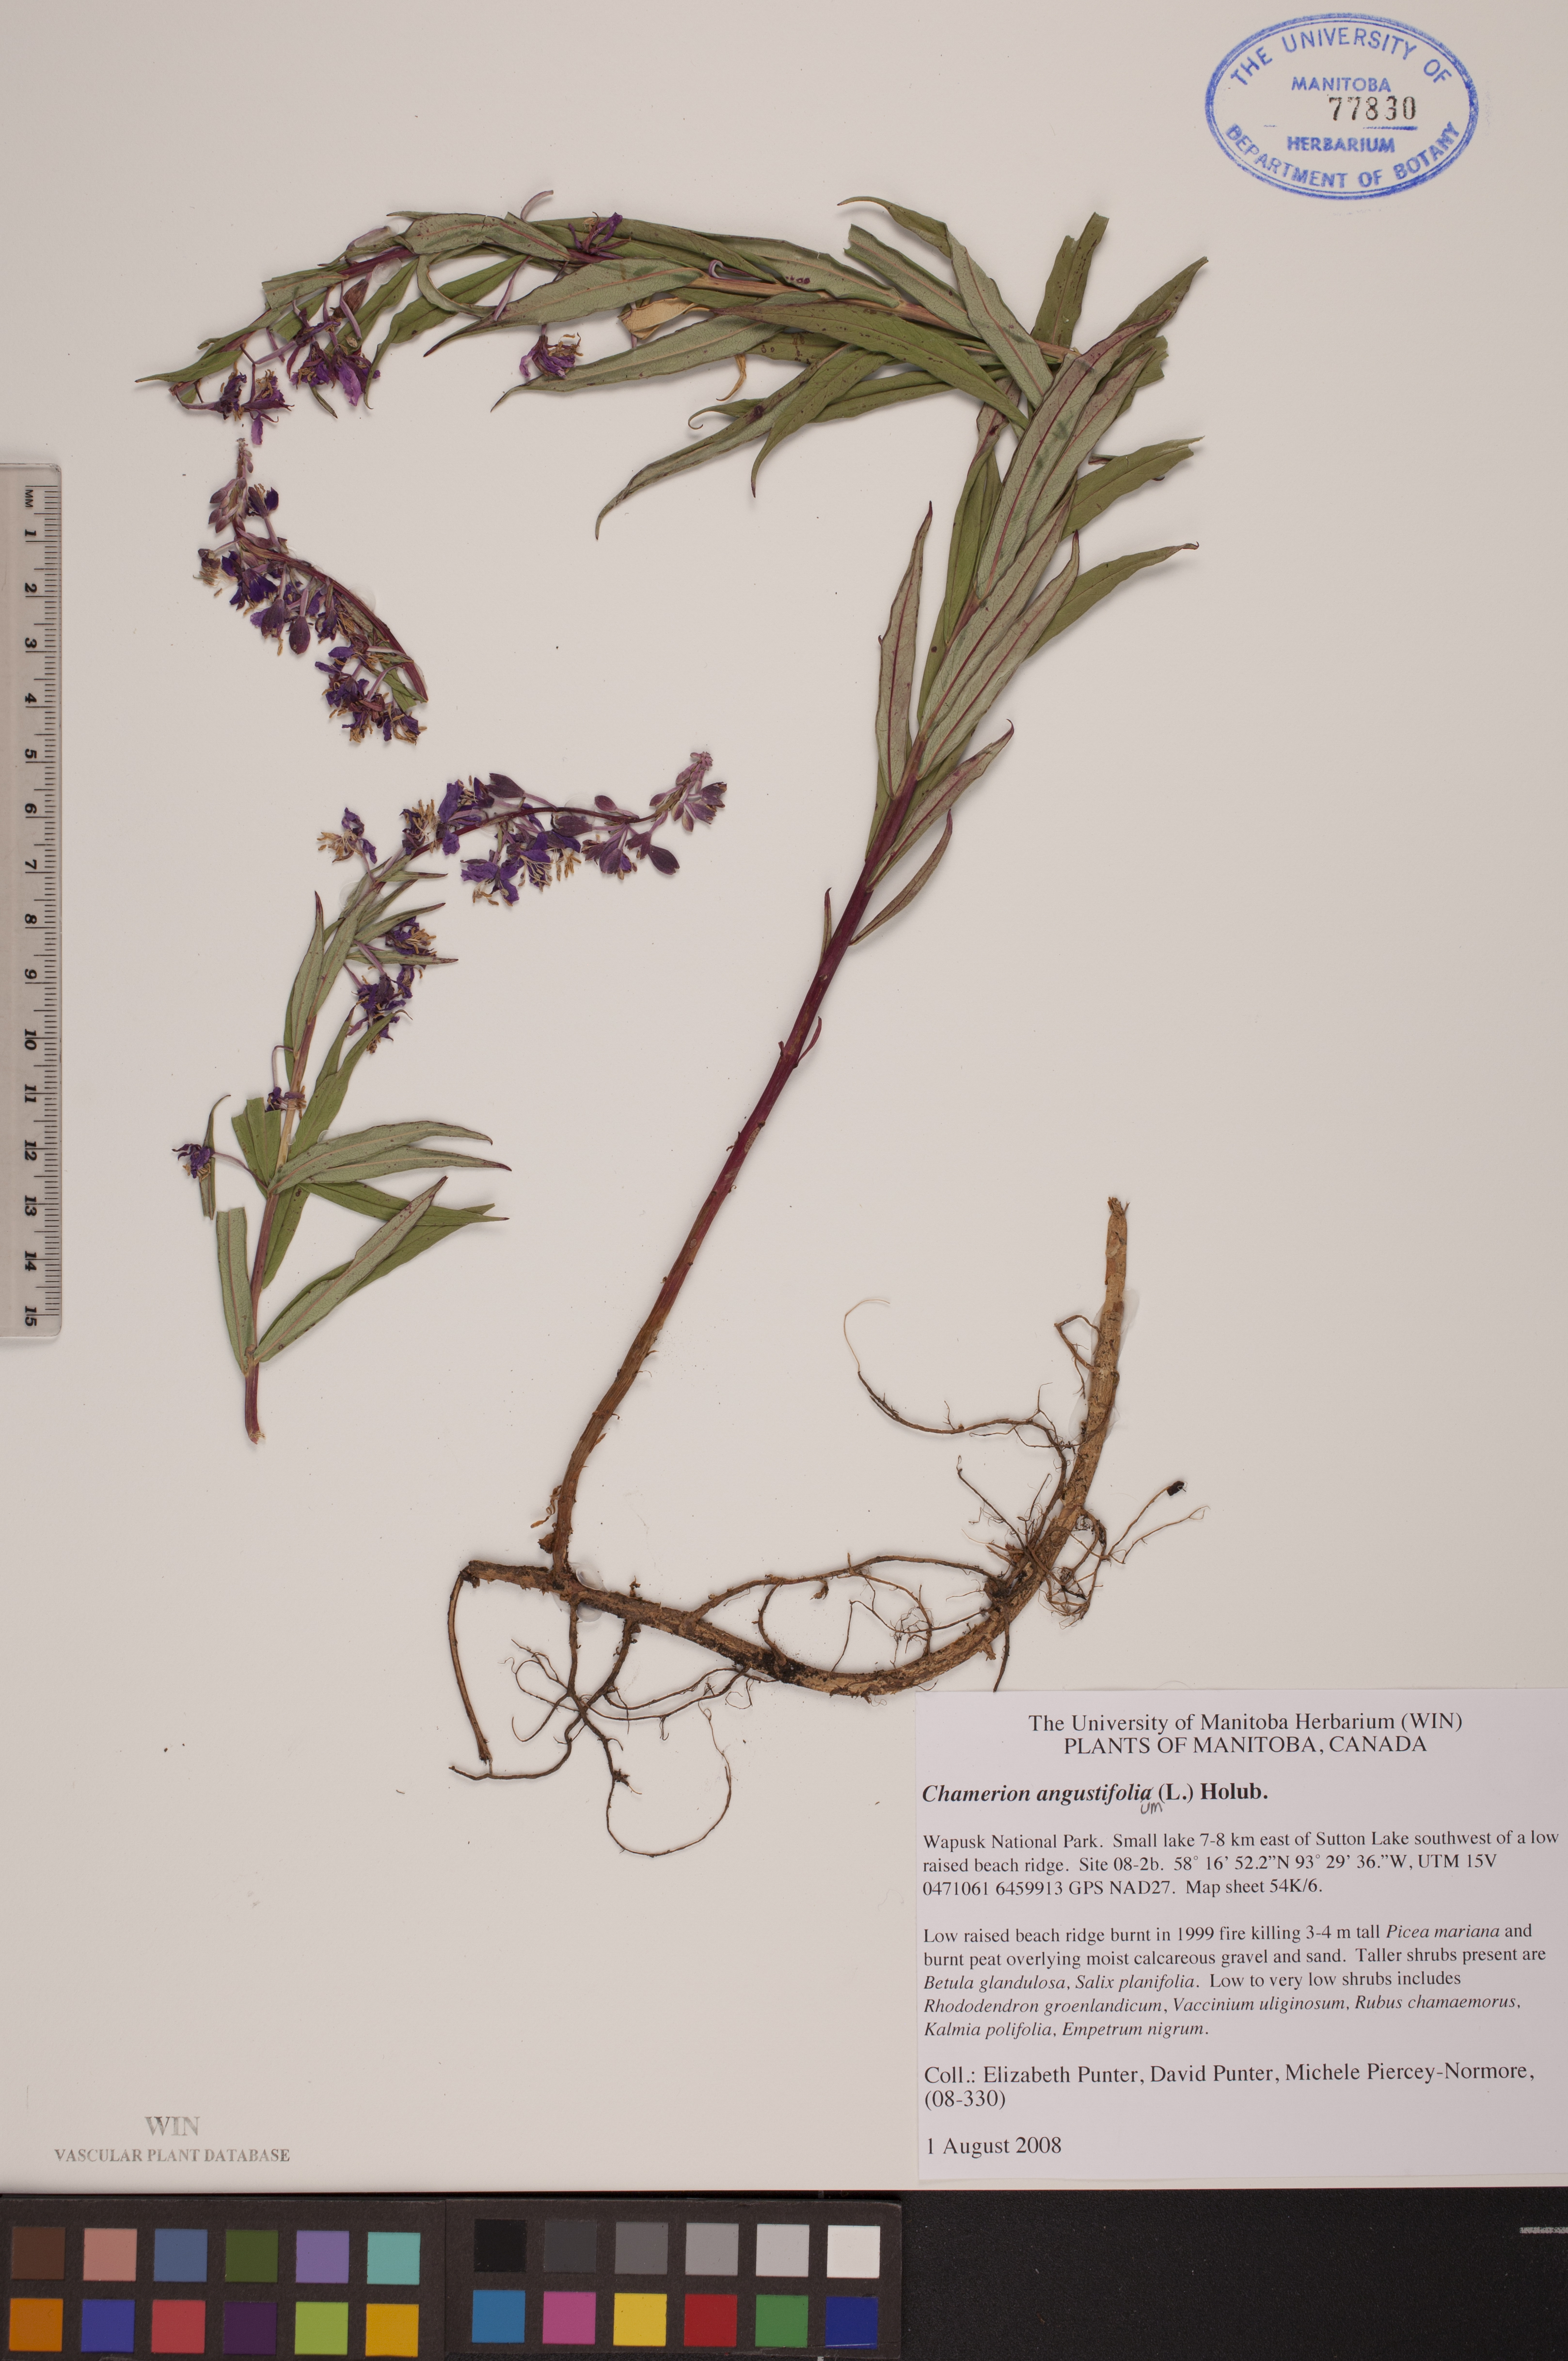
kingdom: Plantae
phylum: Tracheophyta
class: Magnoliopsida
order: Myrtales
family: Onagraceae
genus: Chamaenerion
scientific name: Chamaenerion angustifolium
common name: Fireweed
